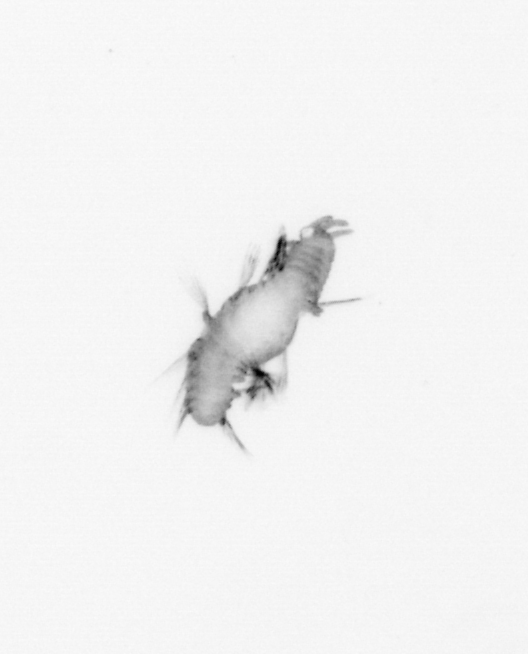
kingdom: Animalia
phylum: Annelida
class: Polychaeta
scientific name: Polychaeta
